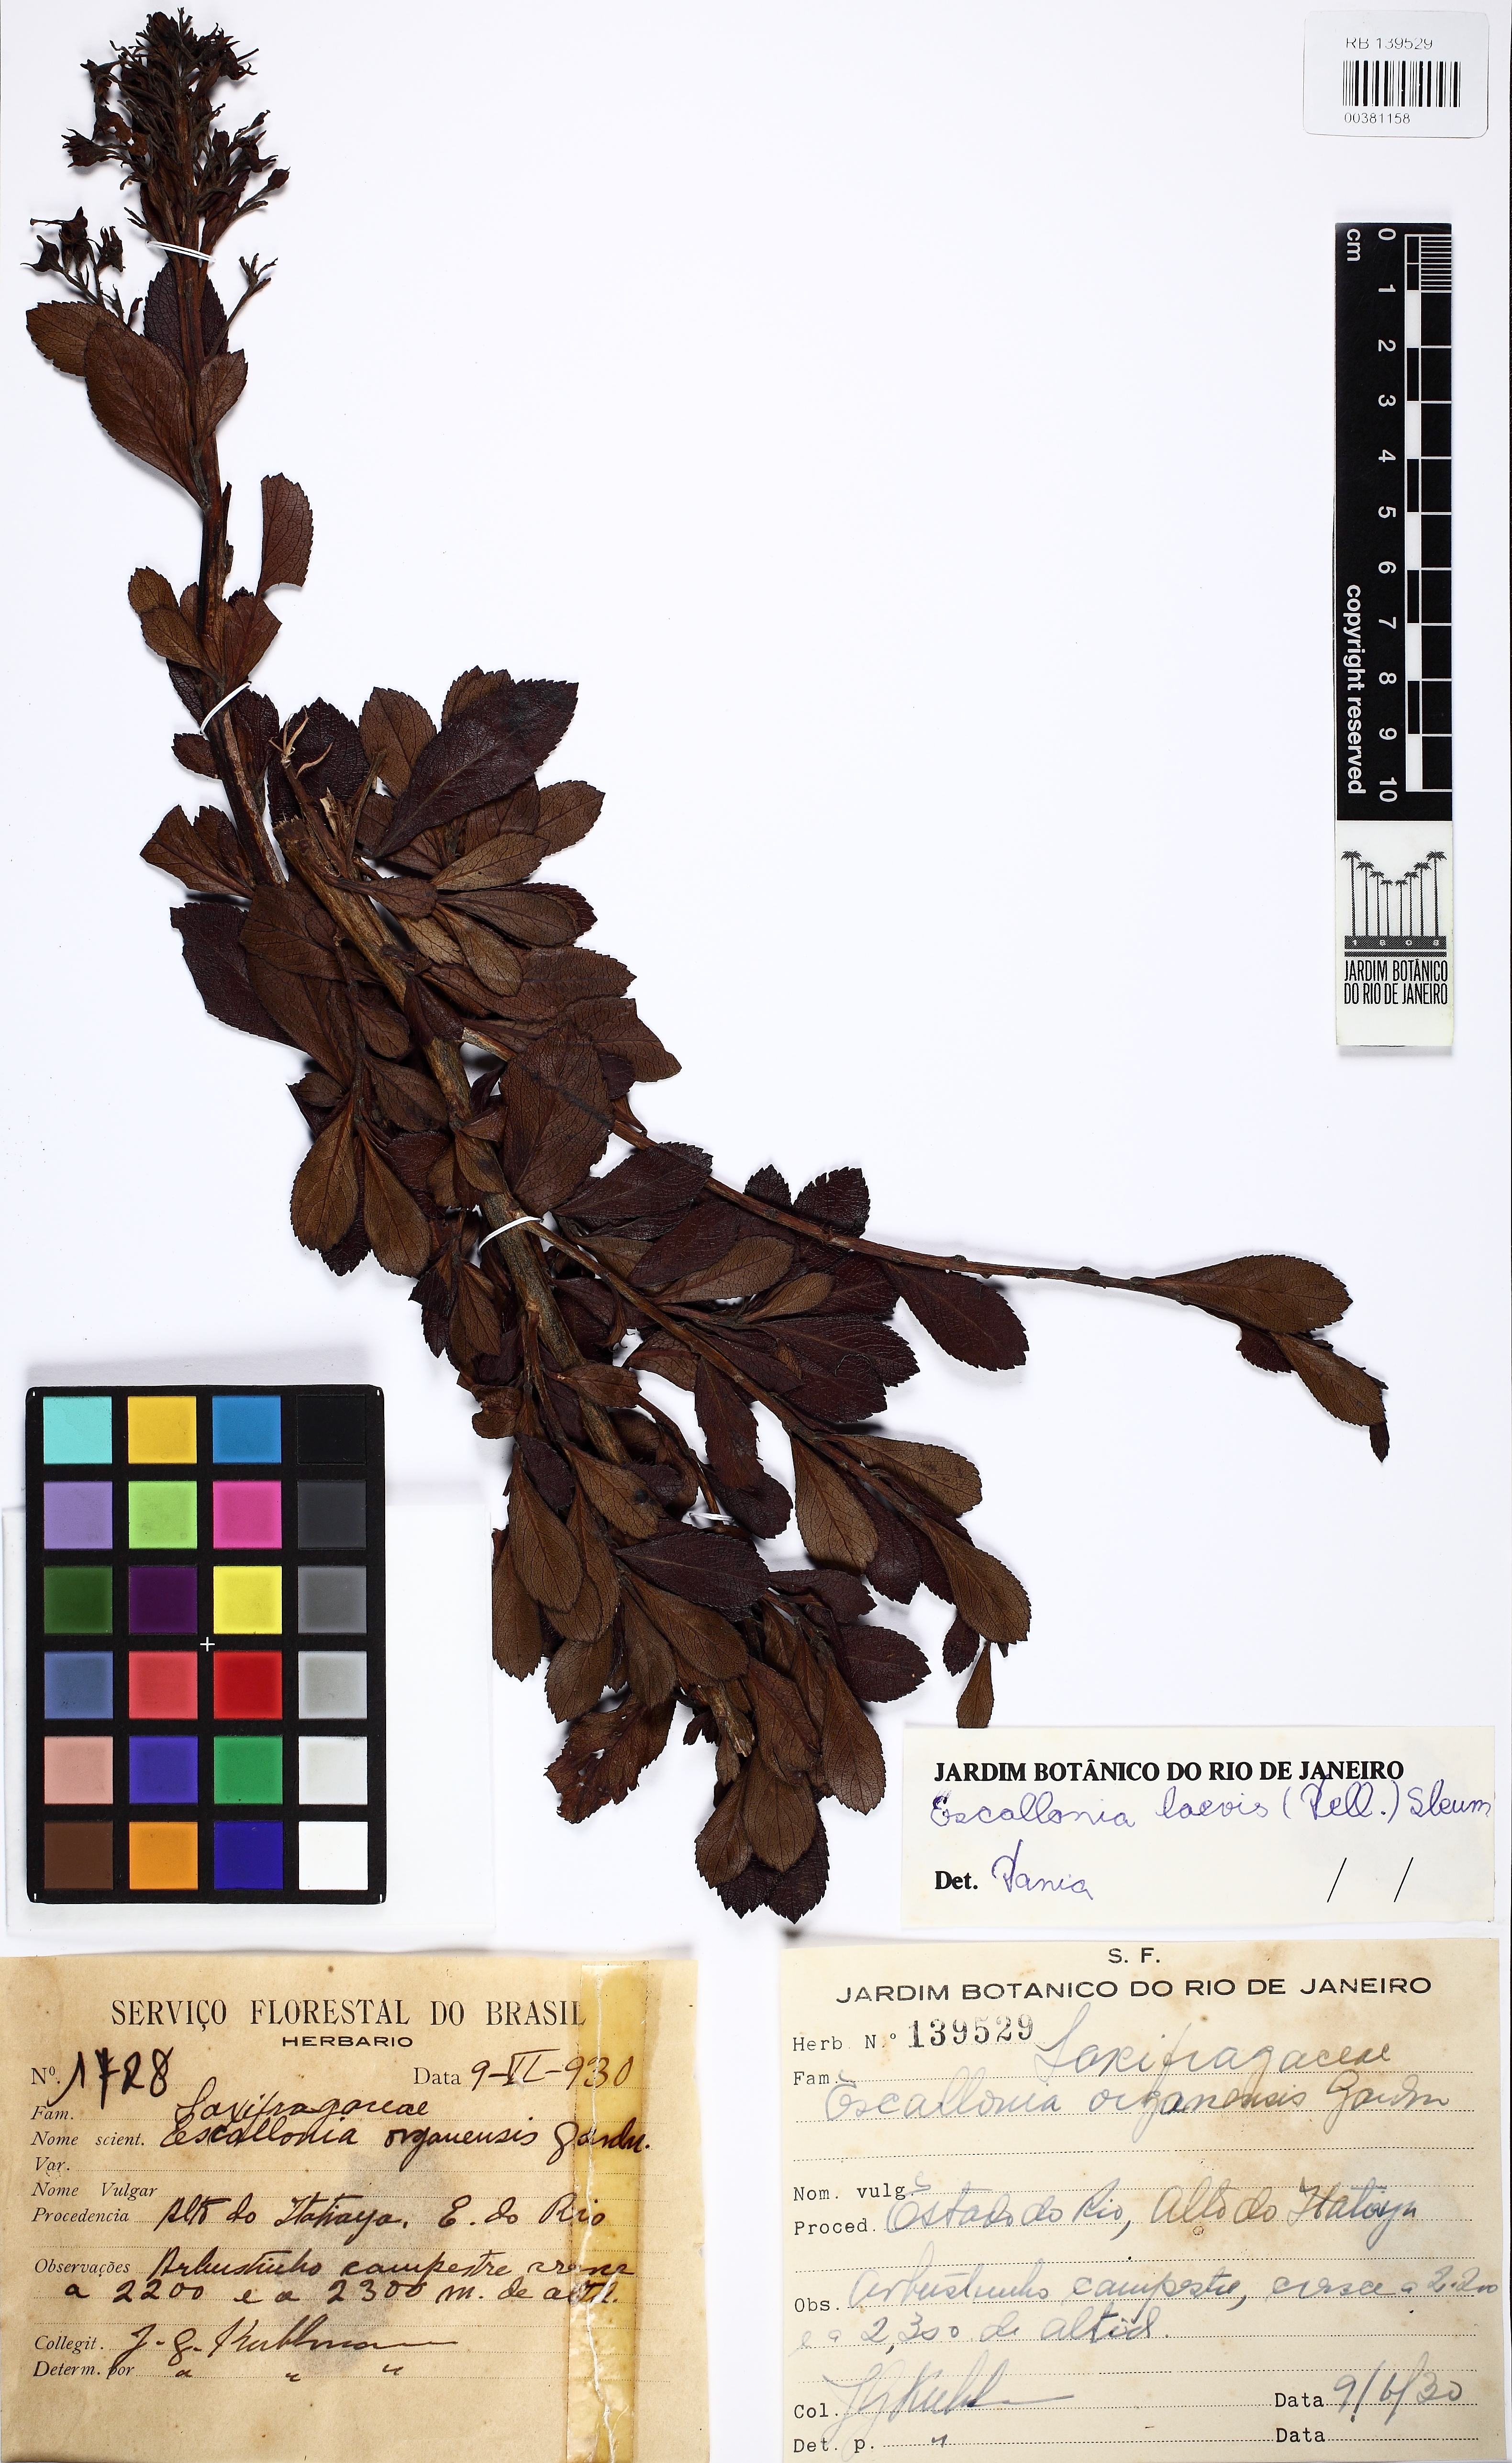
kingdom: Plantae
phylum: Tracheophyta
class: Magnoliopsida
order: Escalloniales
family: Escalloniaceae
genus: Escallonia
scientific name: Escallonia laevis
